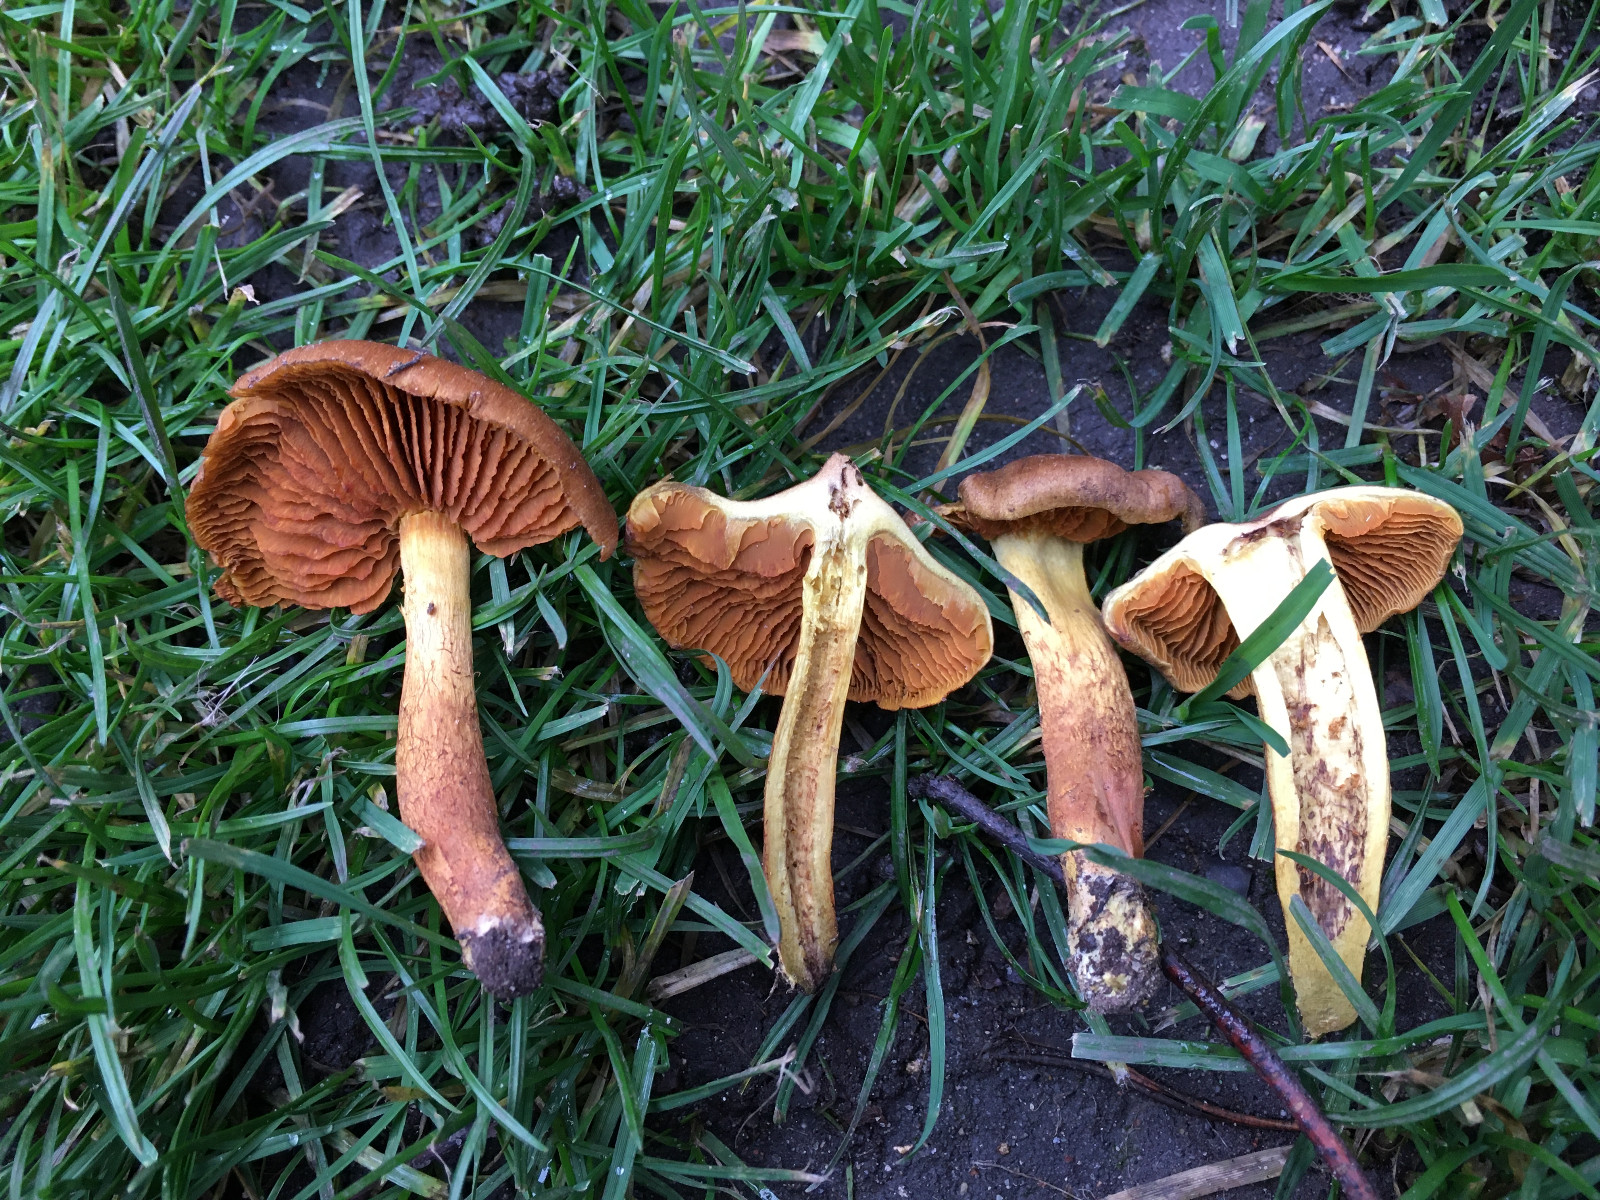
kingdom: Fungi
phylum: Basidiomycota
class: Agaricomycetes
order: Agaricales
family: Cortinariaceae
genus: Cortinarius
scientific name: Cortinarius cinnamomeus
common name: kanel-slørhat
